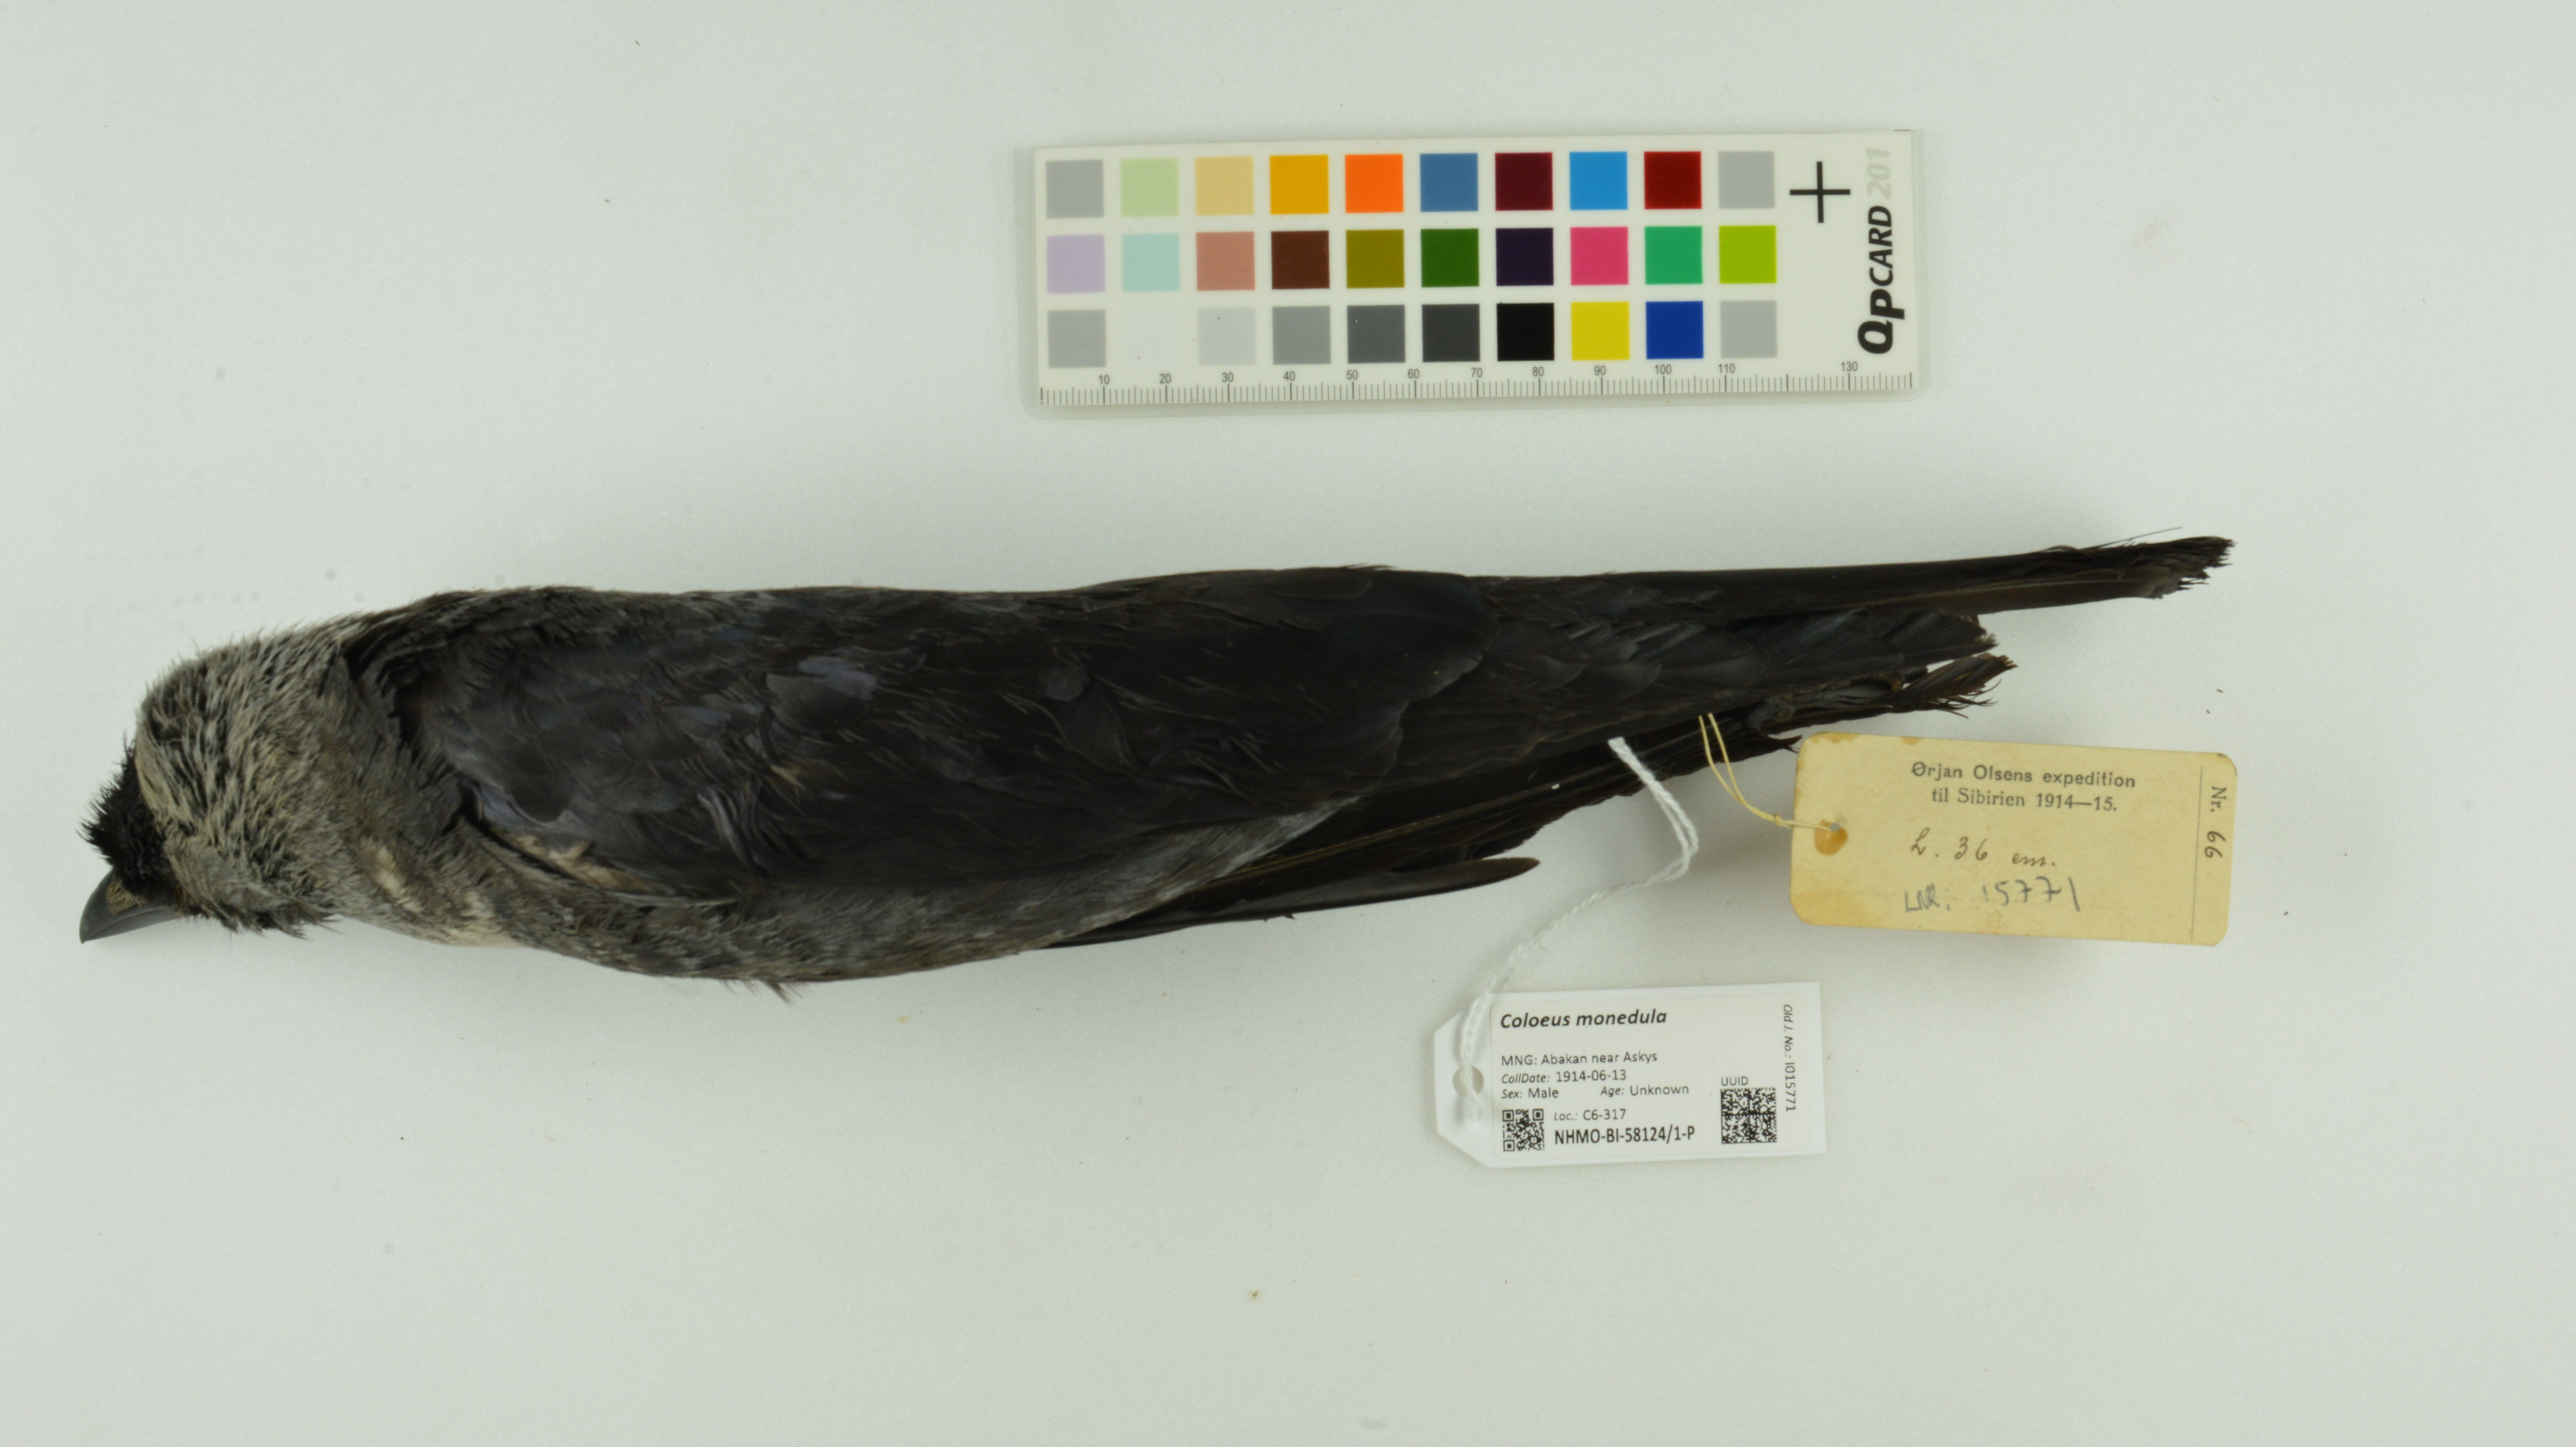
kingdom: Animalia
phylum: Chordata
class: Aves
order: Passeriformes
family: Corvidae
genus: Coloeus
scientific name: Coloeus monedula
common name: Western jackdaw
